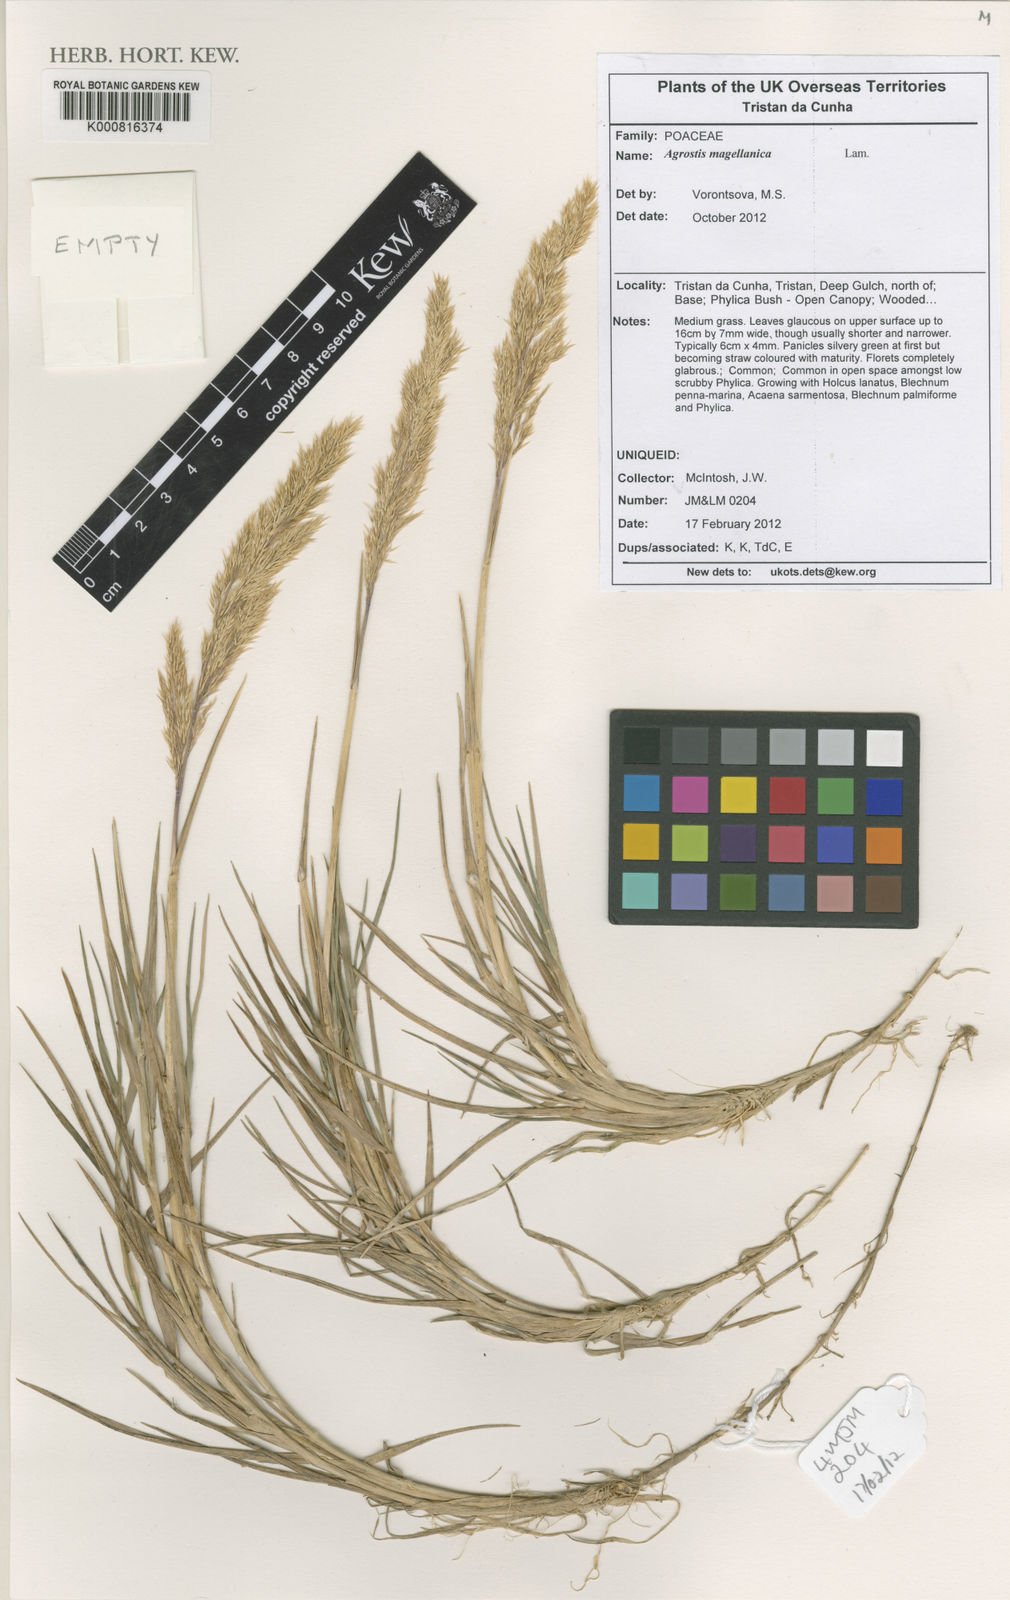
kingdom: Plantae
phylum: Tracheophyta
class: Liliopsida
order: Poales
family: Poaceae
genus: Polypogon
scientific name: Polypogon magellanicus
